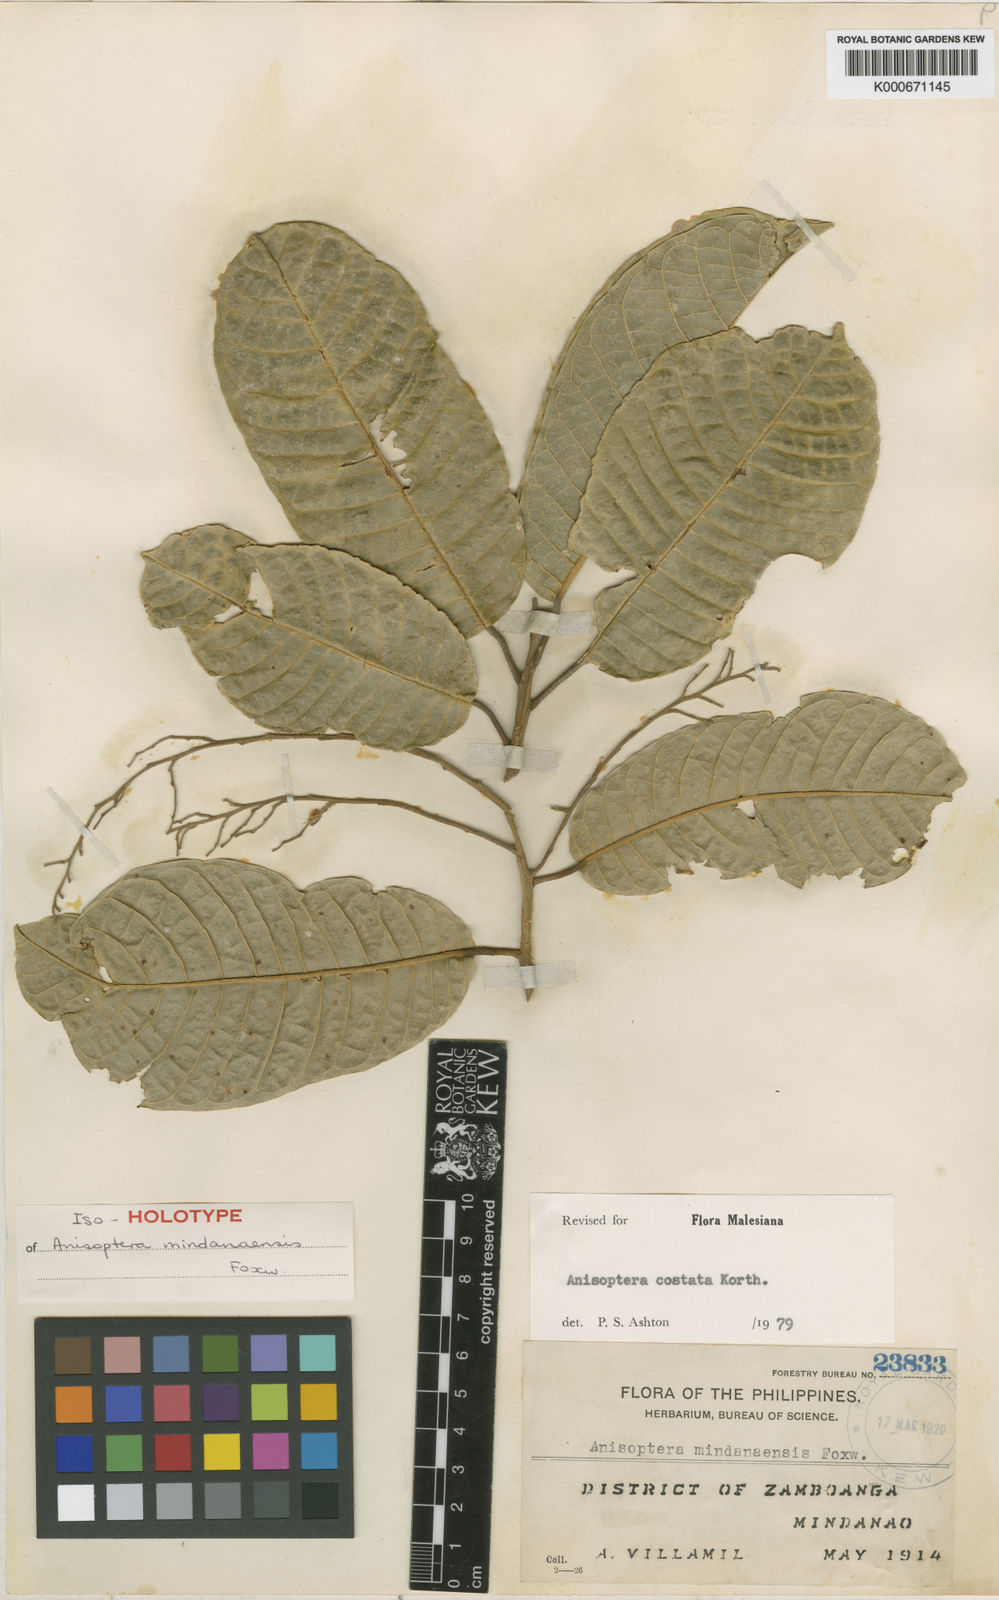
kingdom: Plantae
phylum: Tracheophyta
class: Magnoliopsida
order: Malvales
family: Dipterocarpaceae
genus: Anisoptera
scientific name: Anisoptera costata
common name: Mersawa
